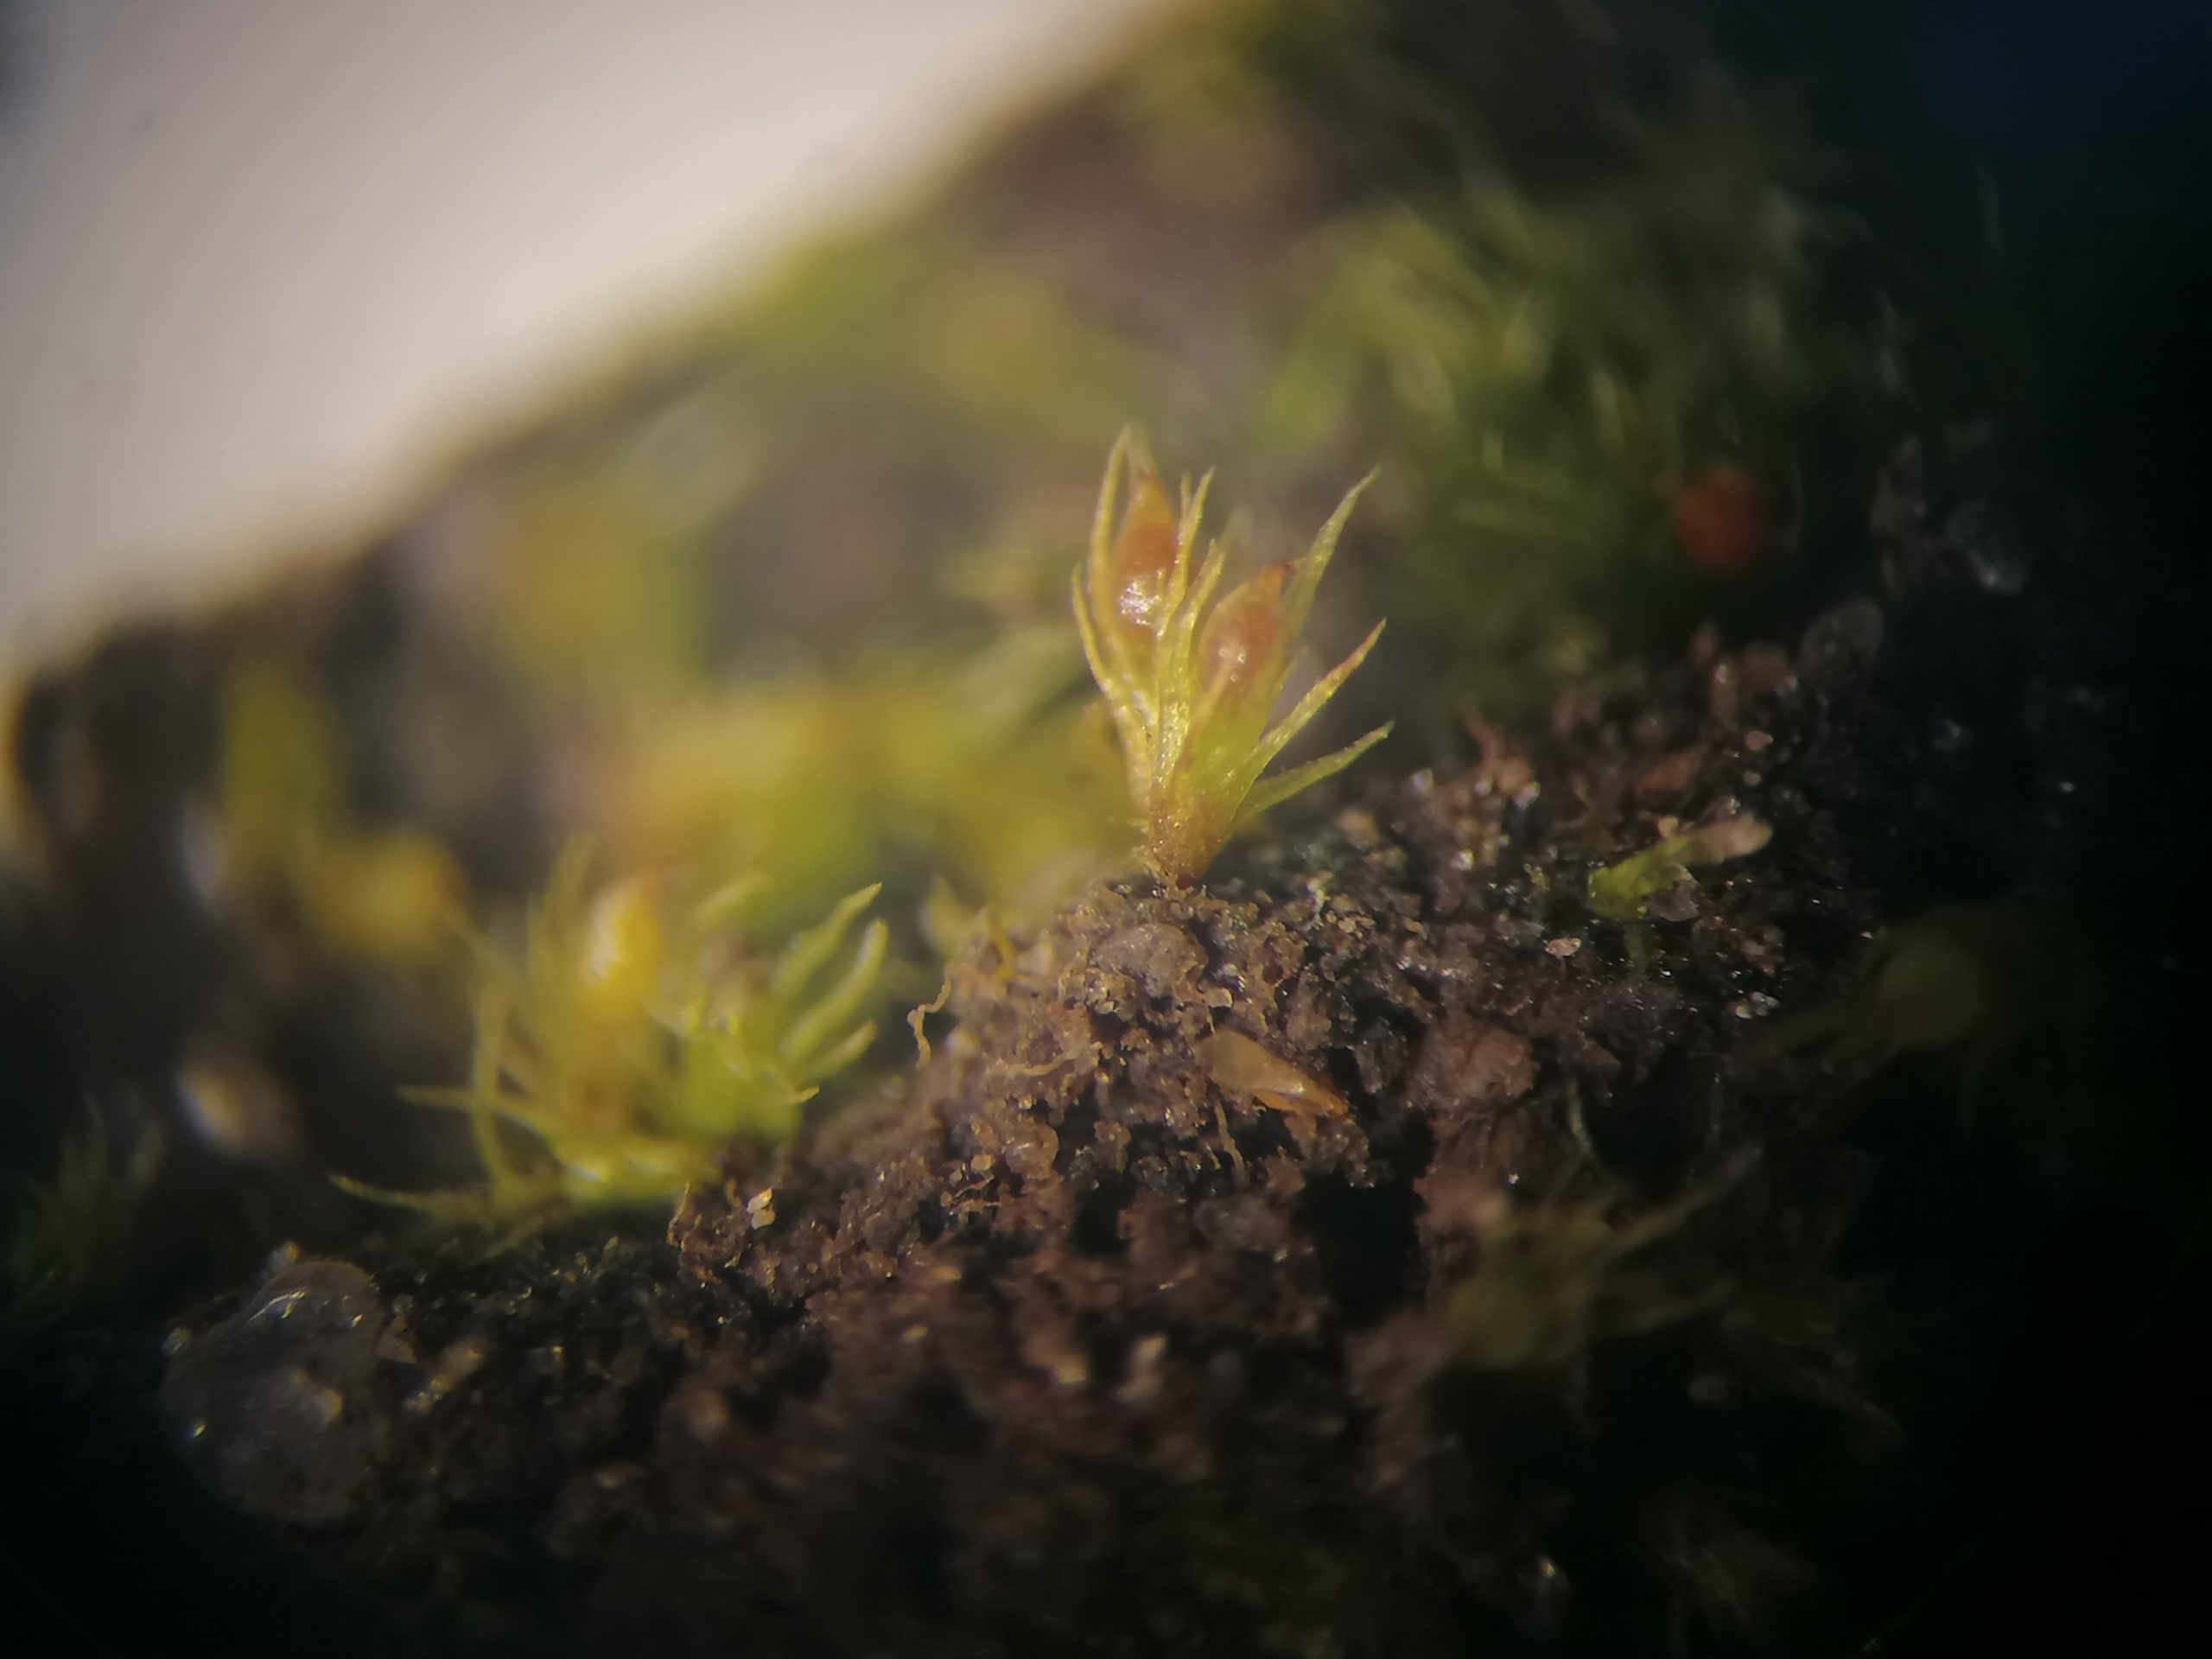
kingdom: Plantae
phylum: Bryophyta
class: Bryopsida
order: Dicranales
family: Ditrichaceae
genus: Pseudephemerum
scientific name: Pseudephemerum nitidum
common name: Jord-nøgenmos
